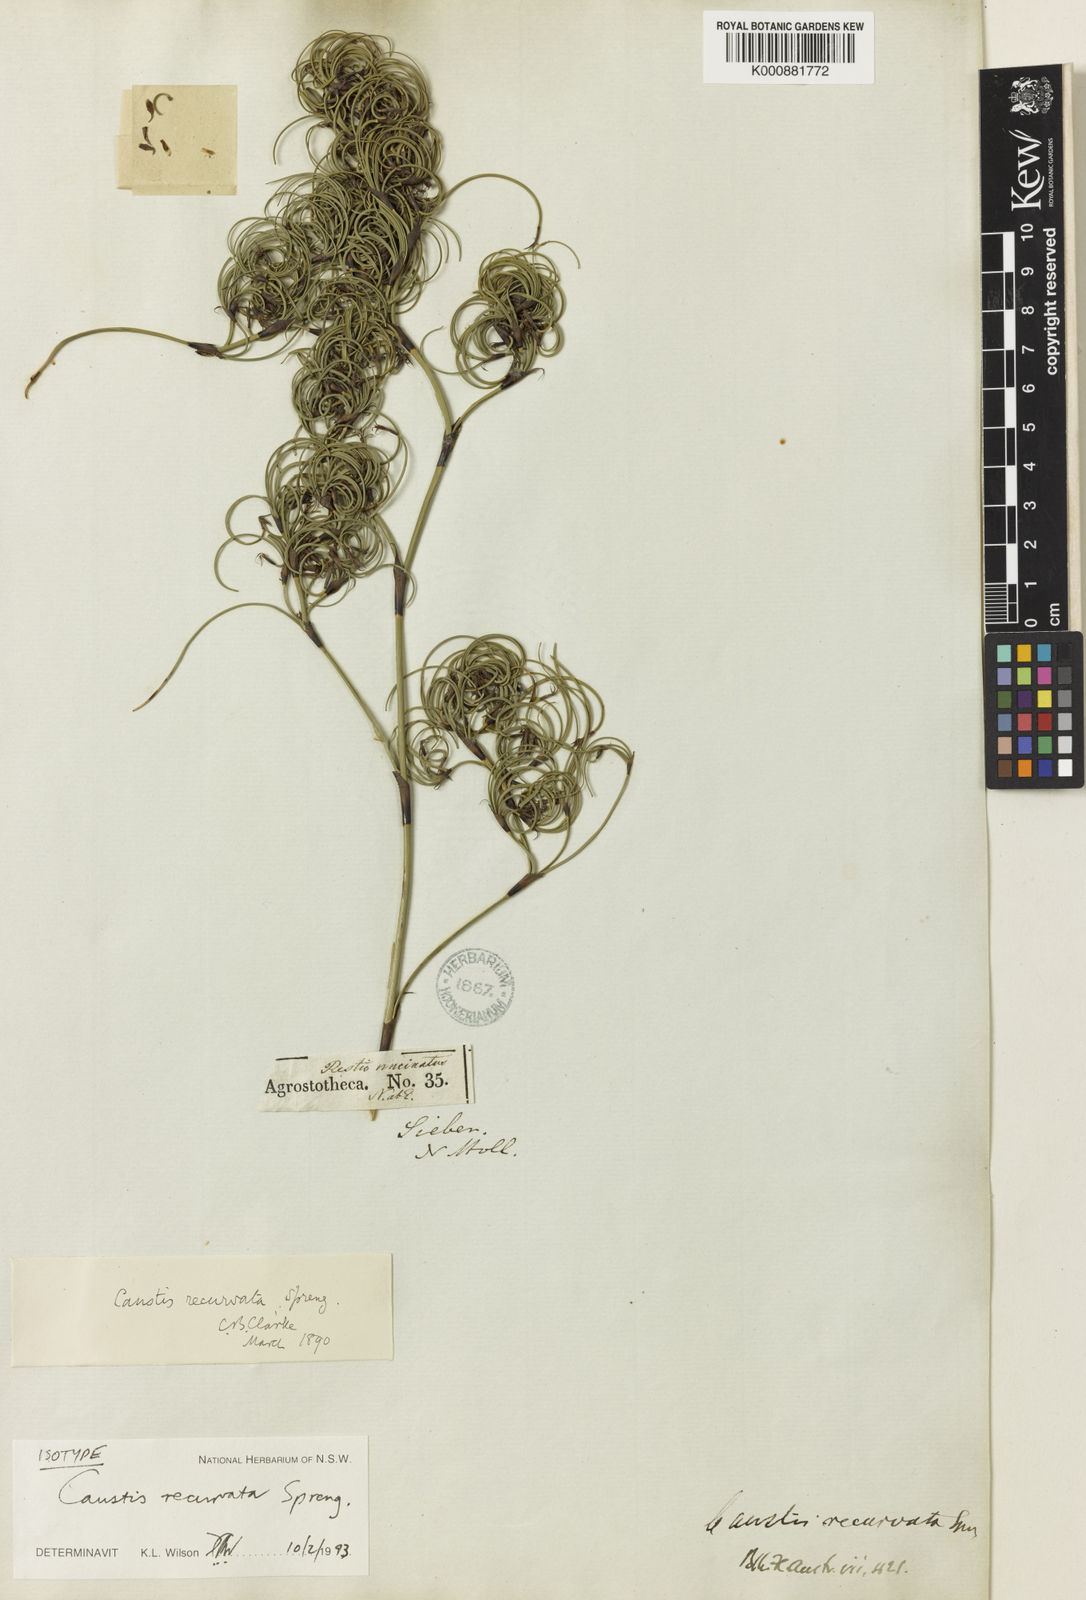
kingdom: Plantae
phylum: Tracheophyta
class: Liliopsida
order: Poales
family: Cyperaceae
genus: Caustis
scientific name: Caustis recurvata
